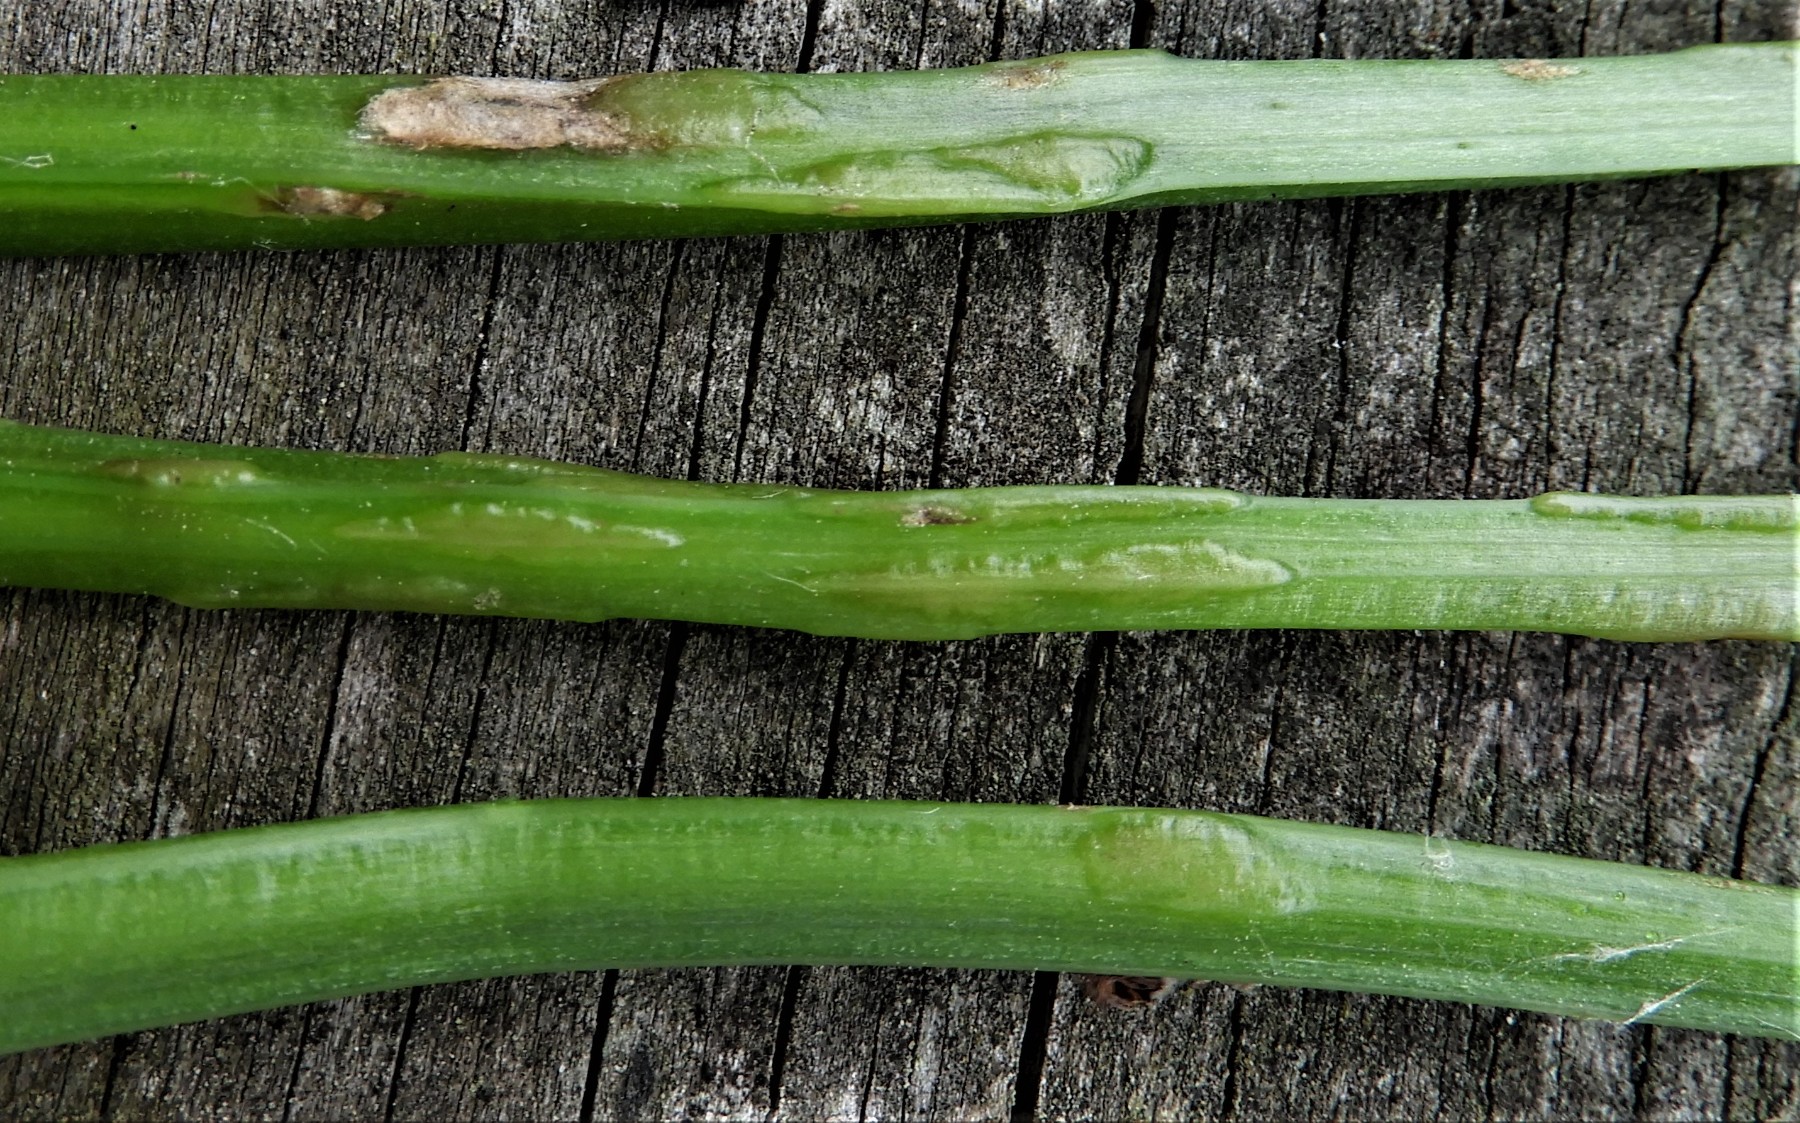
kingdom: Fungi
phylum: Ascomycota
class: Taphrinomycetes
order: Taphrinales
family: Taphrinaceae
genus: Protomyces
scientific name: Protomyces macrosporus
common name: skvalderkål-vablesæk
